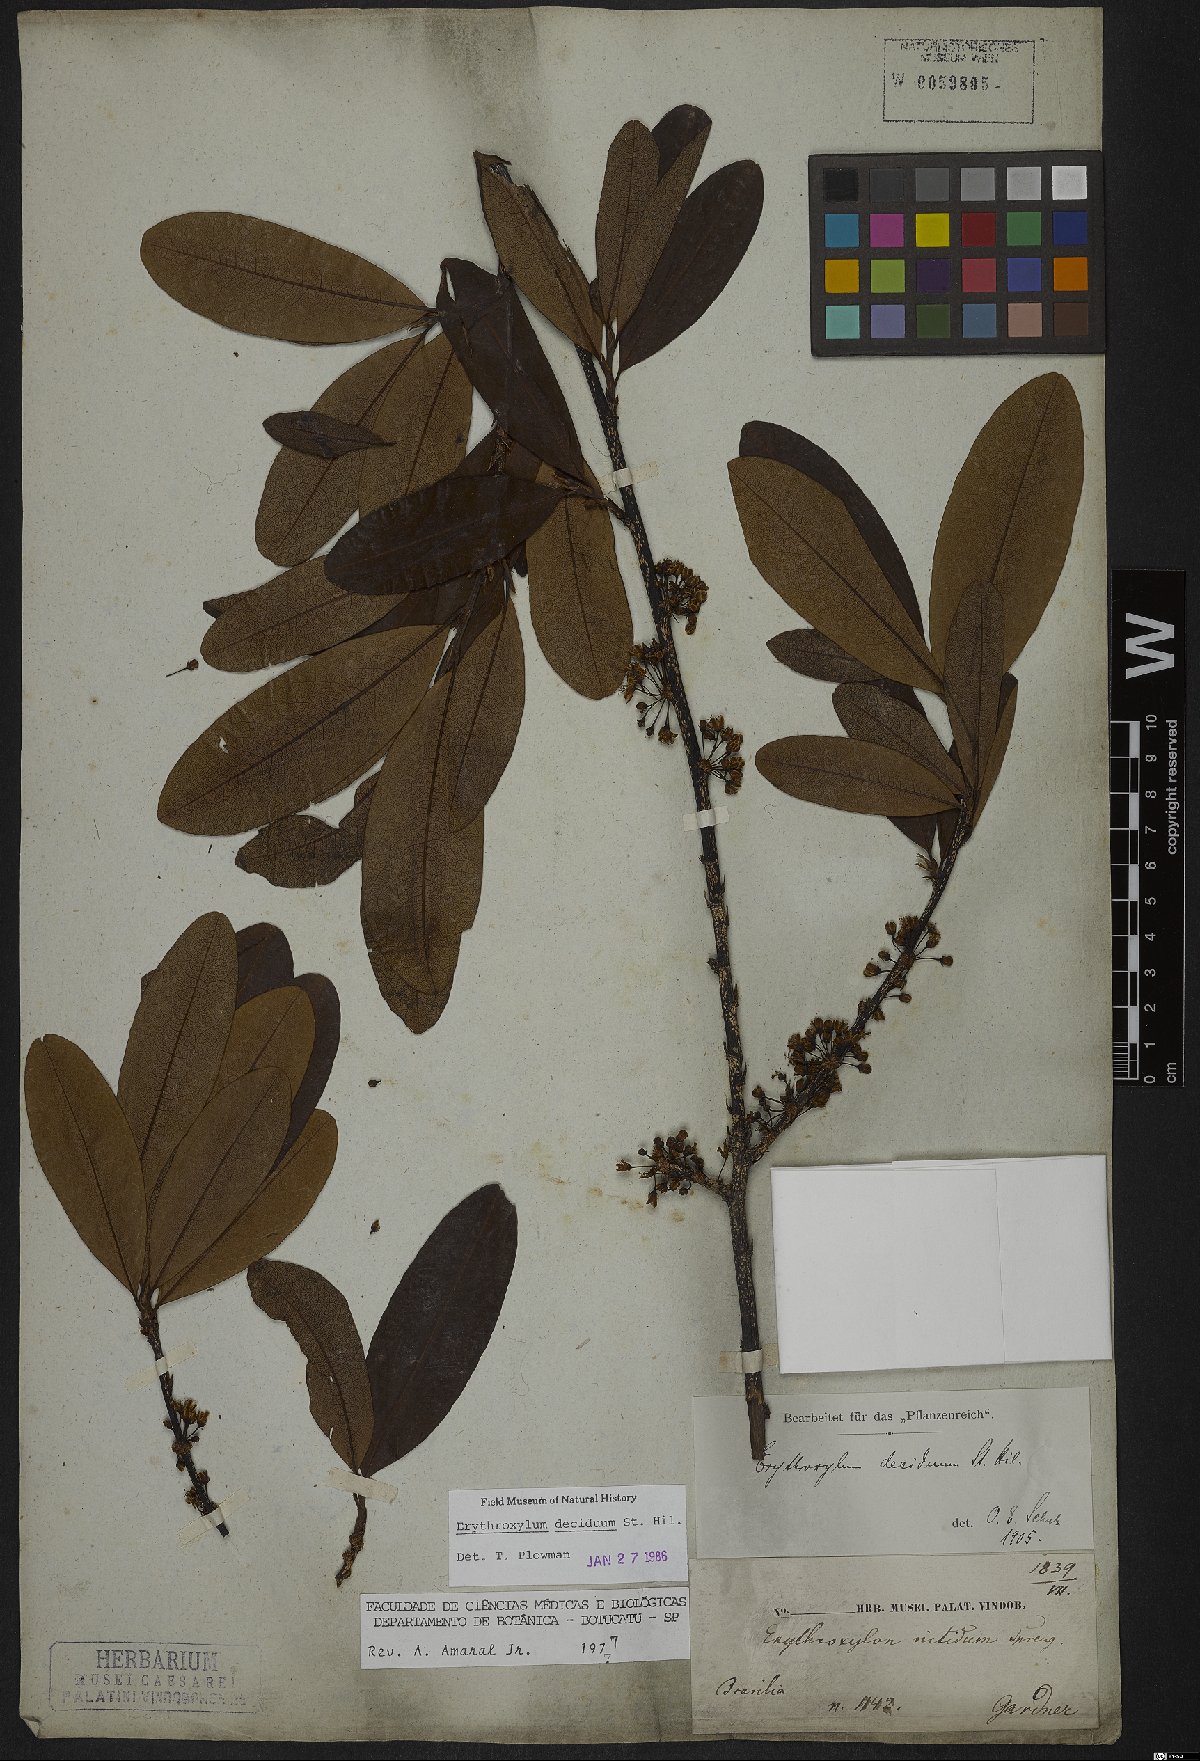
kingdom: Plantae
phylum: Tracheophyta
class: Magnoliopsida
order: Malpighiales
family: Erythroxylaceae
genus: Erythroxylum
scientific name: Erythroxylum deciduum
